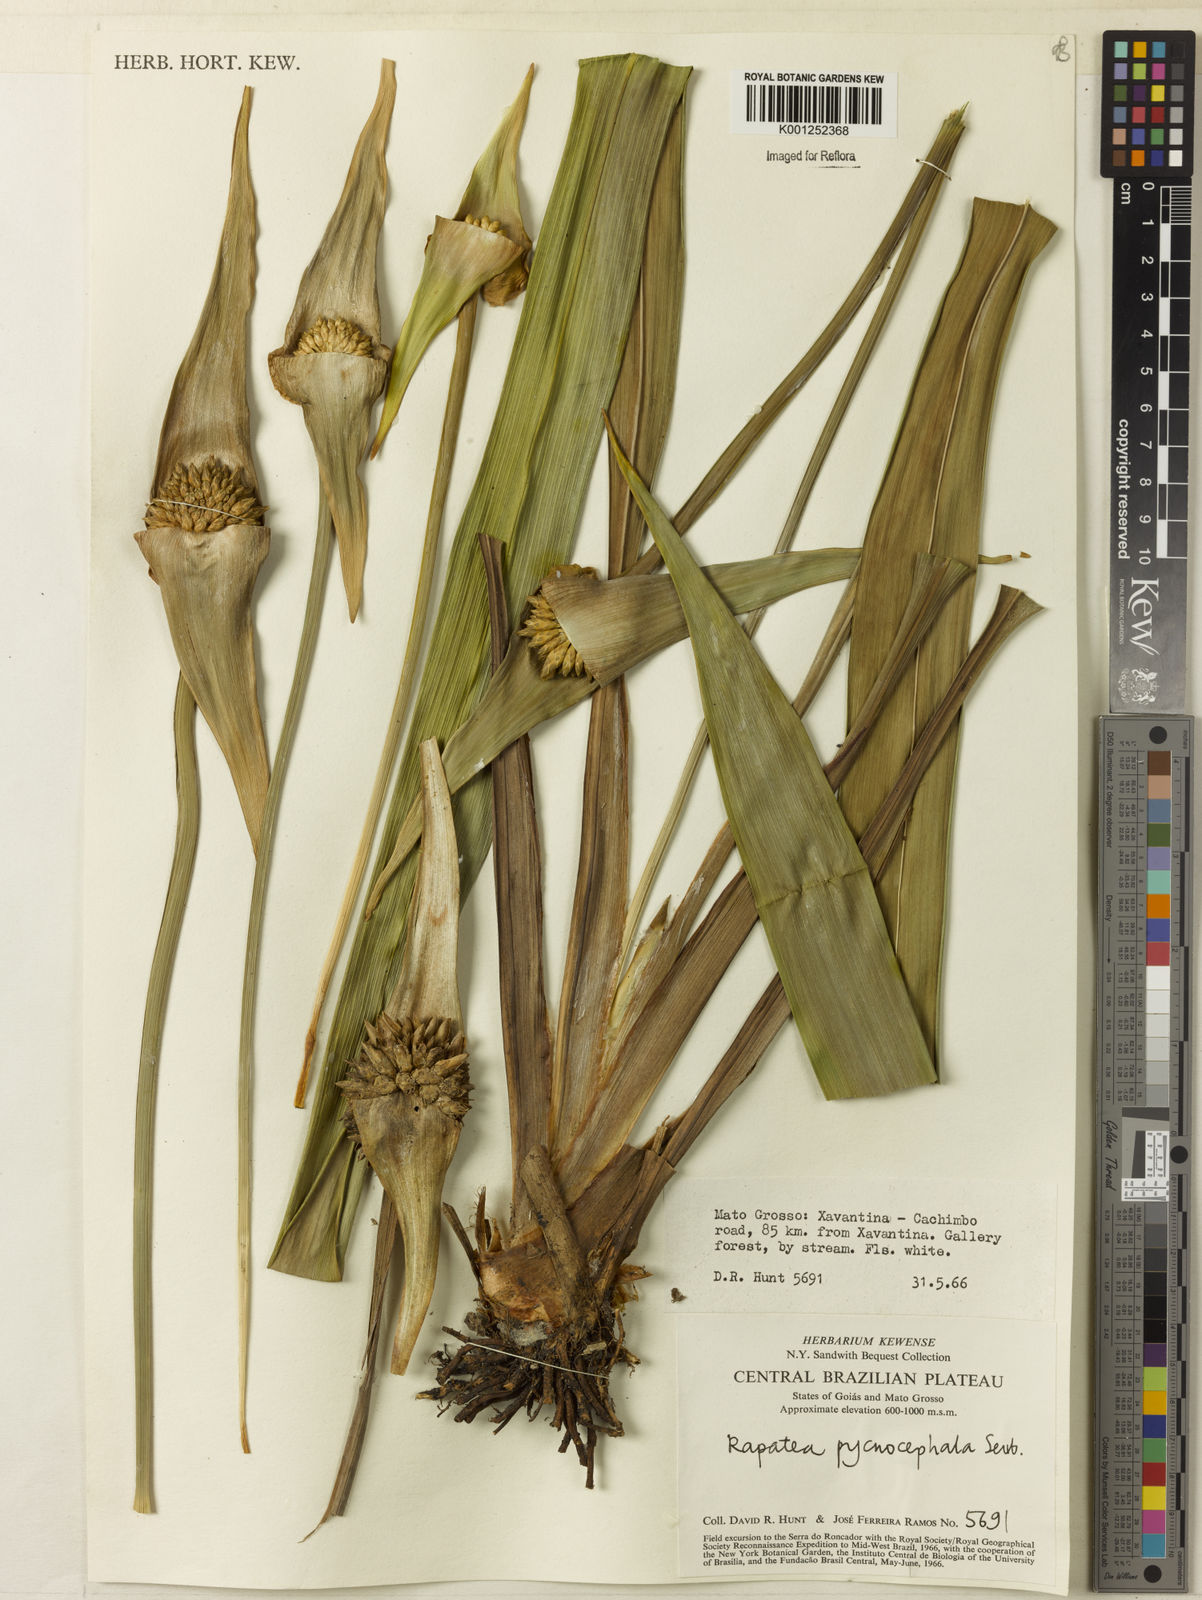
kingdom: Plantae
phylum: Tracheophyta
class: Liliopsida
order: Poales
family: Rapateaceae
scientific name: Rapateaceae
